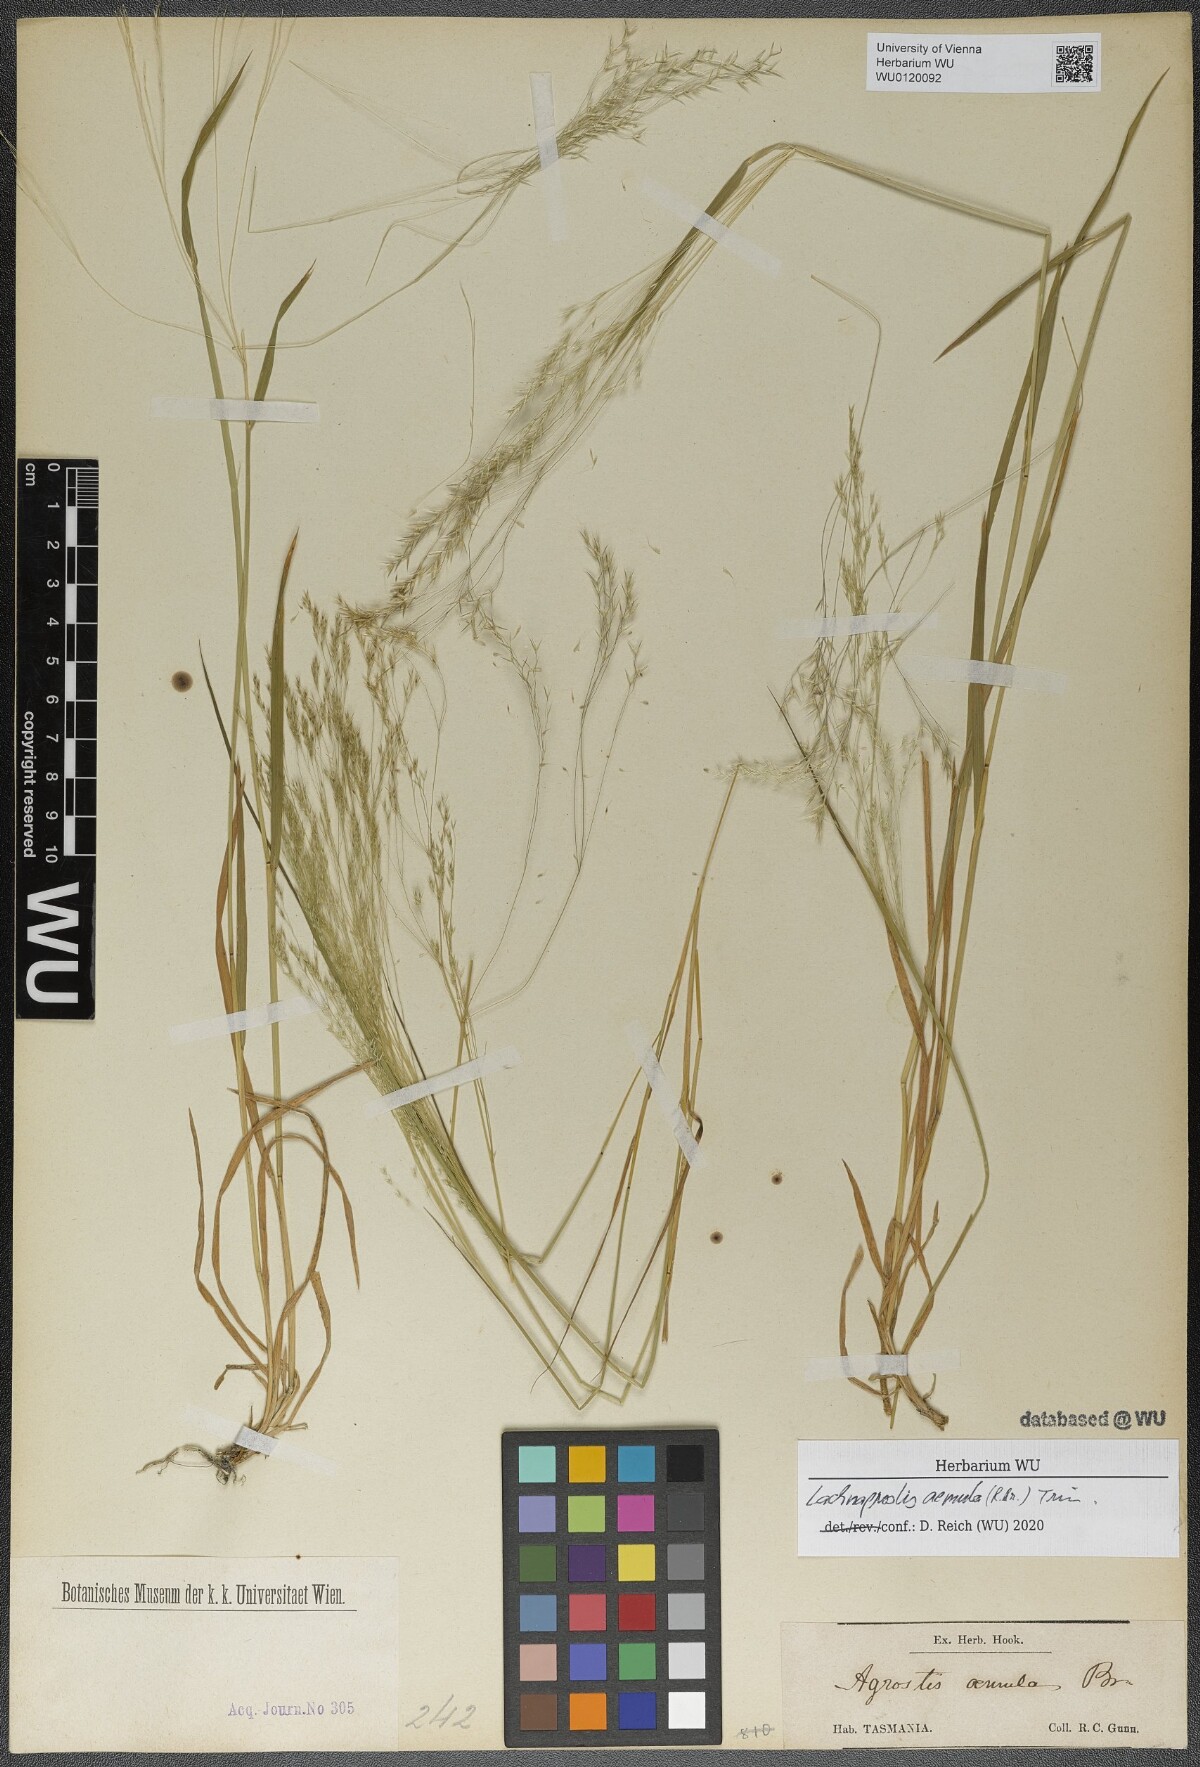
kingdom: Plantae
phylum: Tracheophyta
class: Liliopsida
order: Poales
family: Poaceae
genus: Lachnagrostis
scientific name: Lachnagrostis aemula
